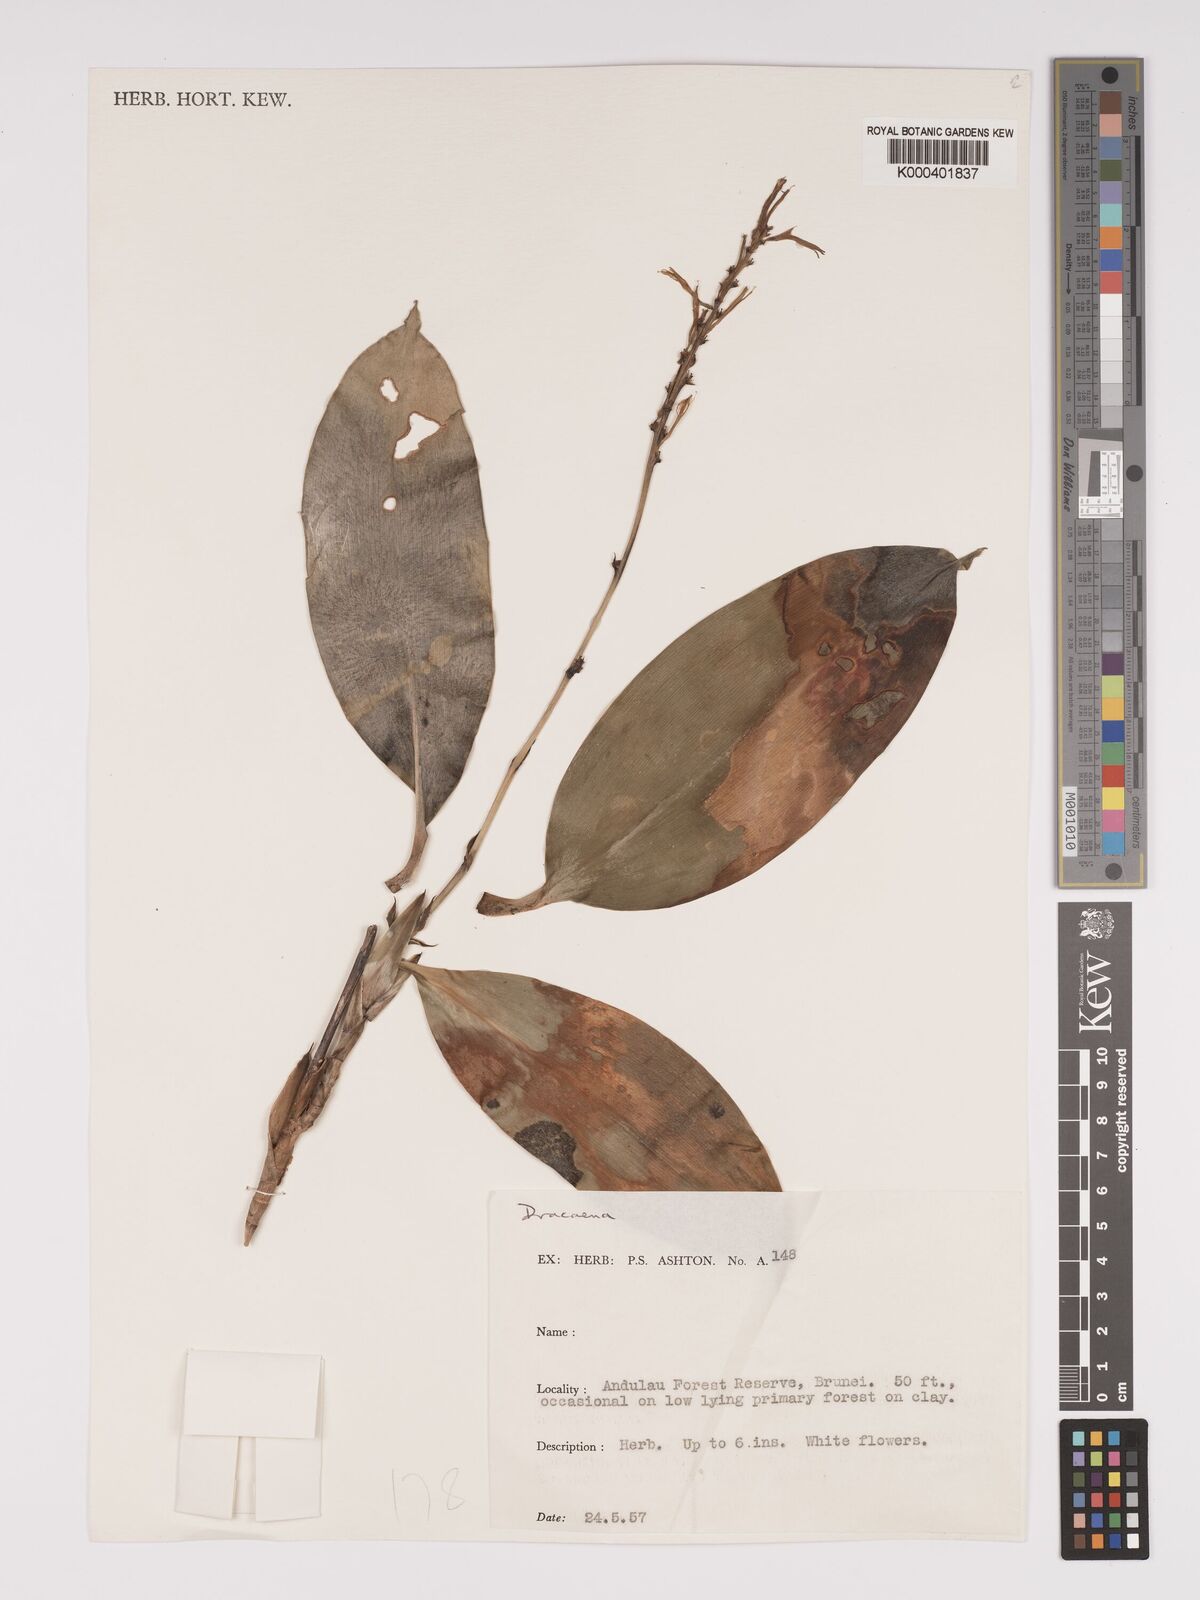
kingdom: Plantae
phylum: Tracheophyta
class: Liliopsida
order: Asparagales
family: Asparagaceae
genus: Dracaena
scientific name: Dracaena
